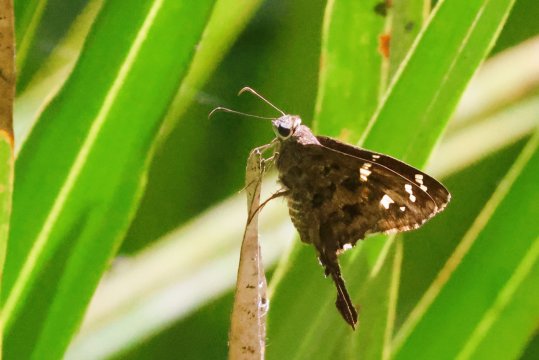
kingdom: Animalia
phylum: Arthropoda
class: Insecta
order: Lepidoptera
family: Hesperiidae
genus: Urbanus
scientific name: Urbanus dorantes
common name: Dorantes Longtail
